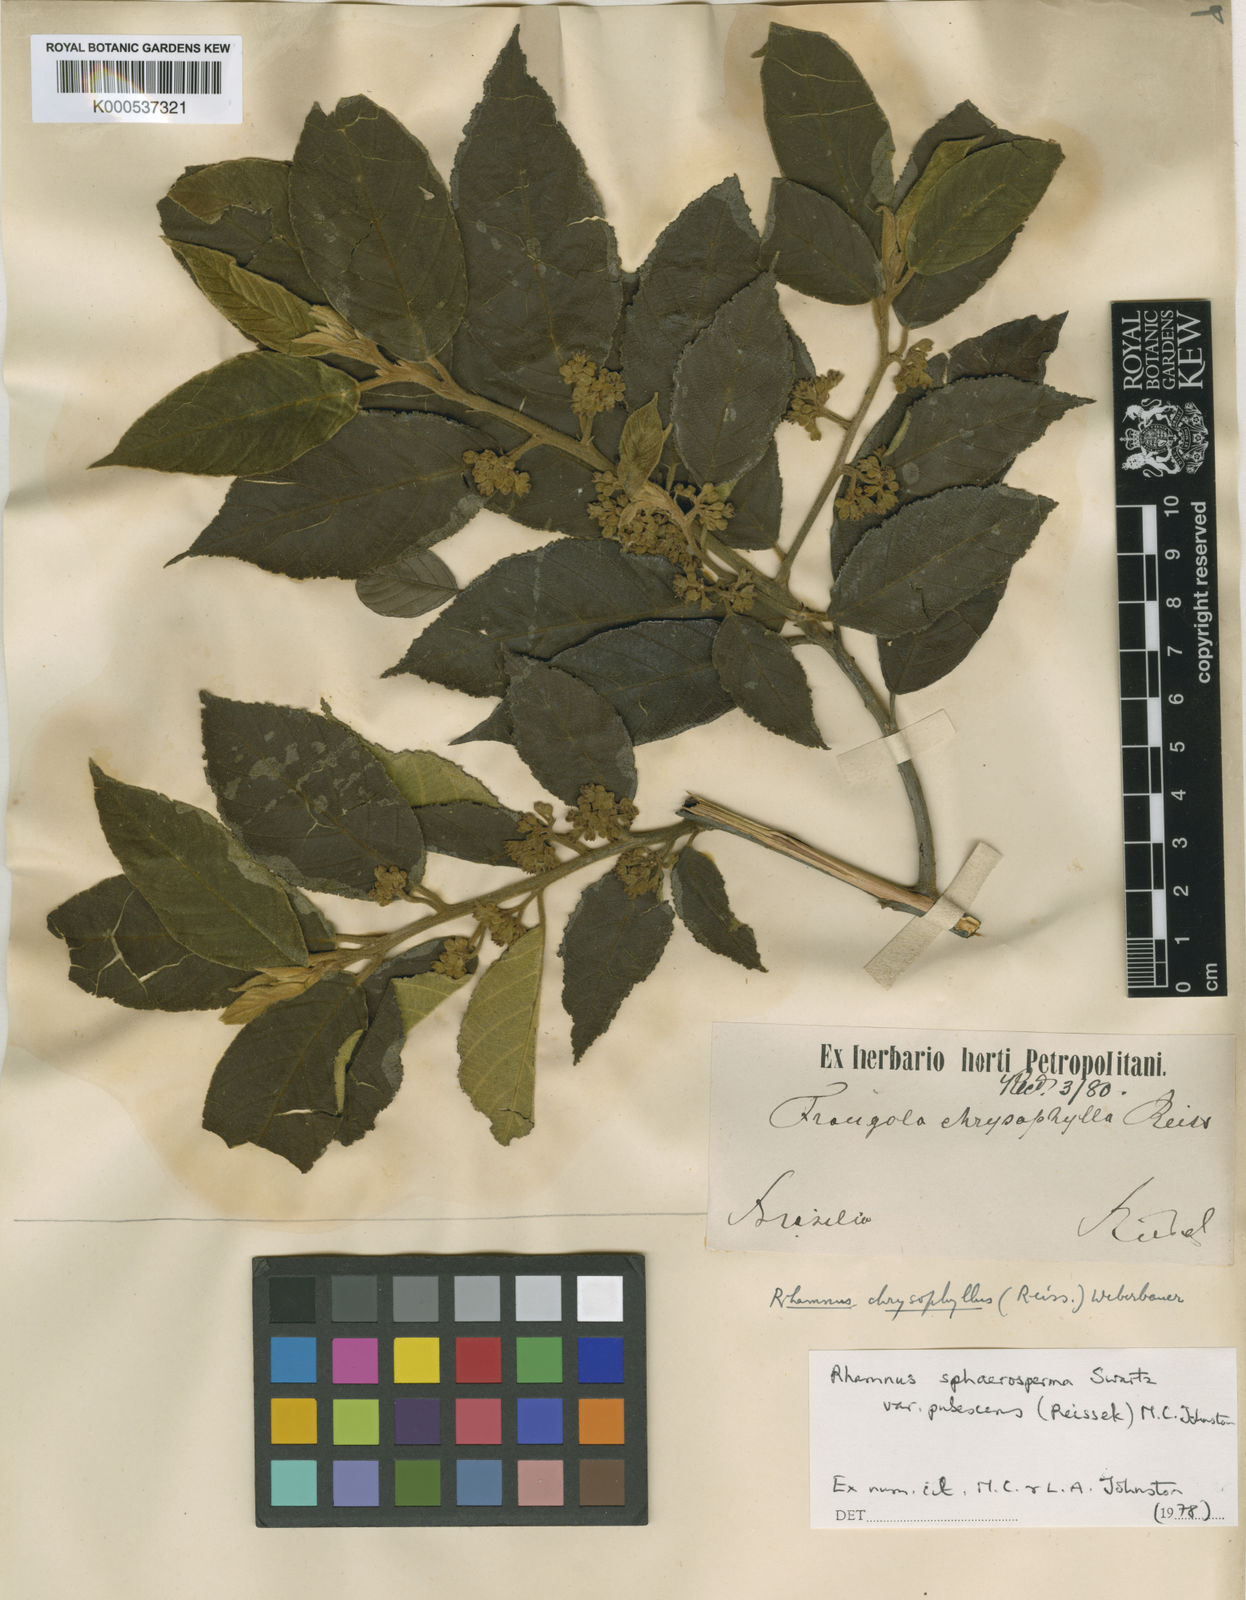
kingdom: Plantae
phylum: Tracheophyta
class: Magnoliopsida
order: Rosales
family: Rhamnaceae
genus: Frangula
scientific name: Frangula
